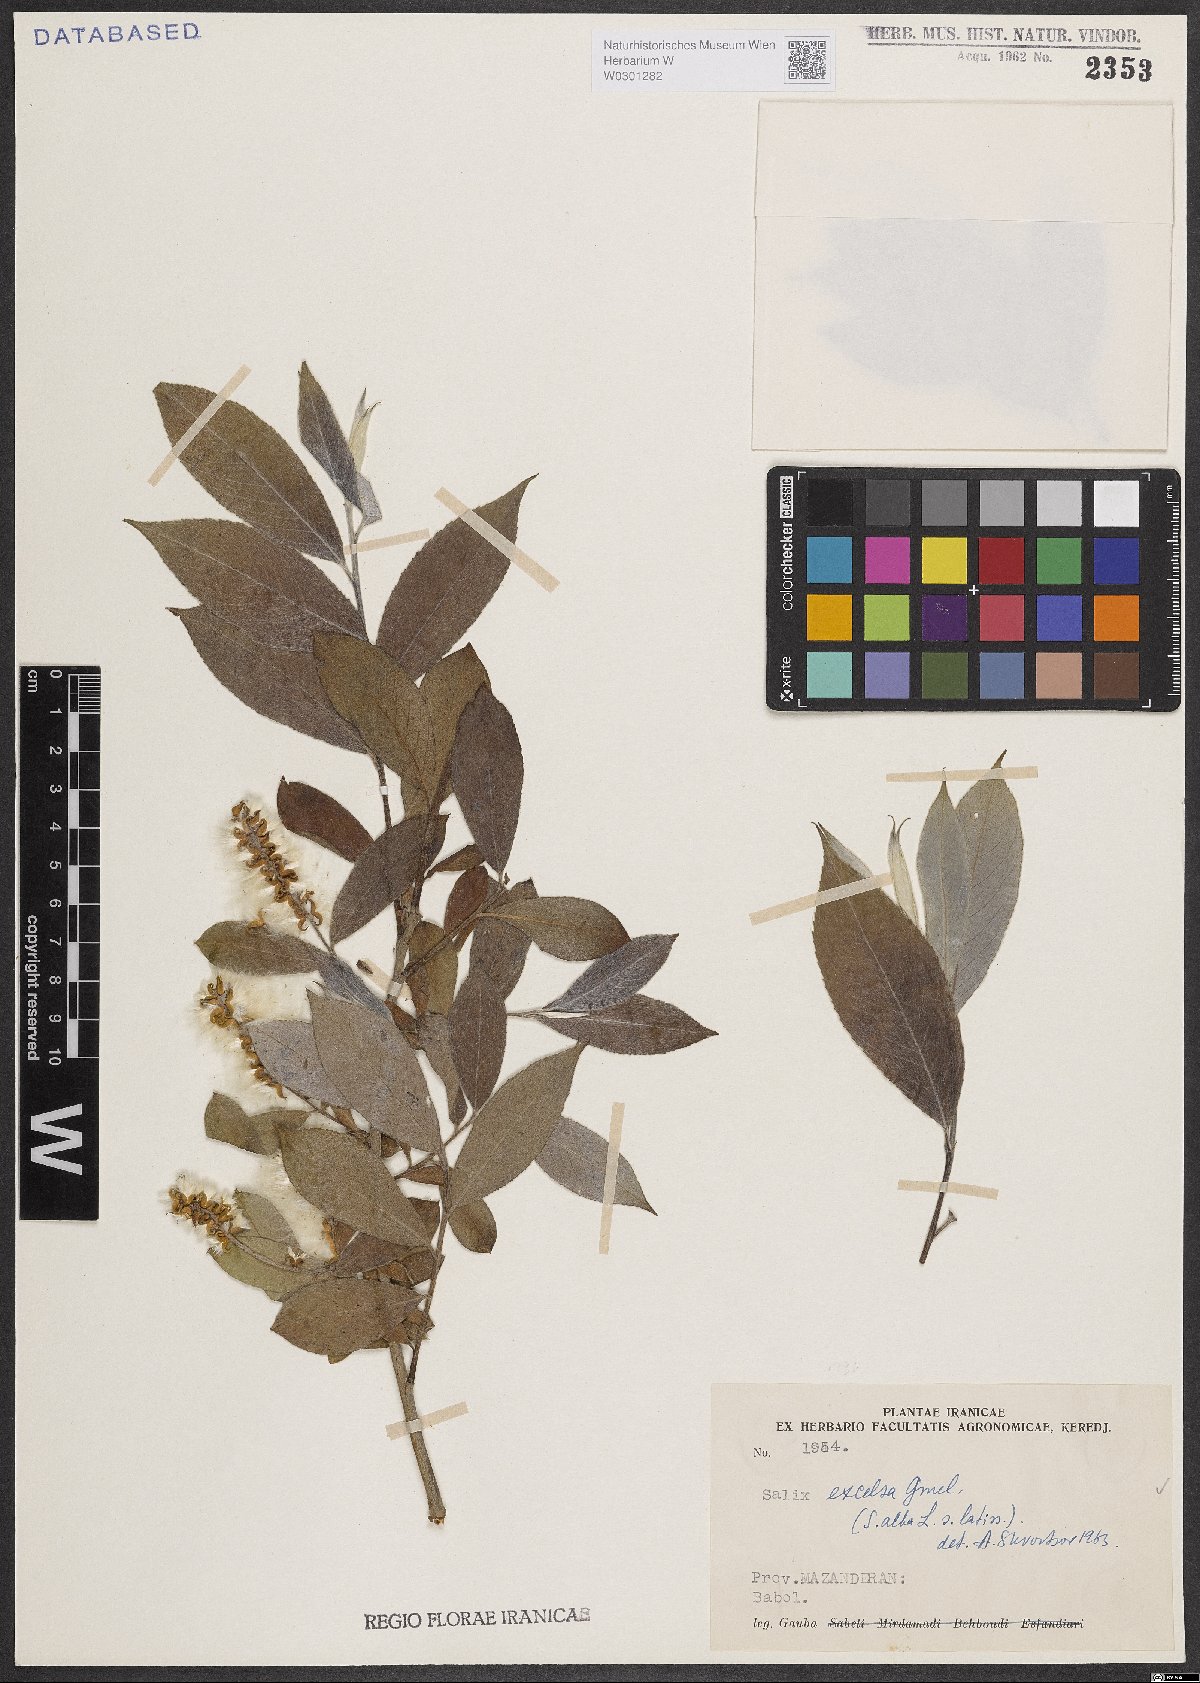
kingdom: Plantae
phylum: Tracheophyta
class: Magnoliopsida
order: Malpighiales
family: Salicaceae
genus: Salix
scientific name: Salix excelsa
